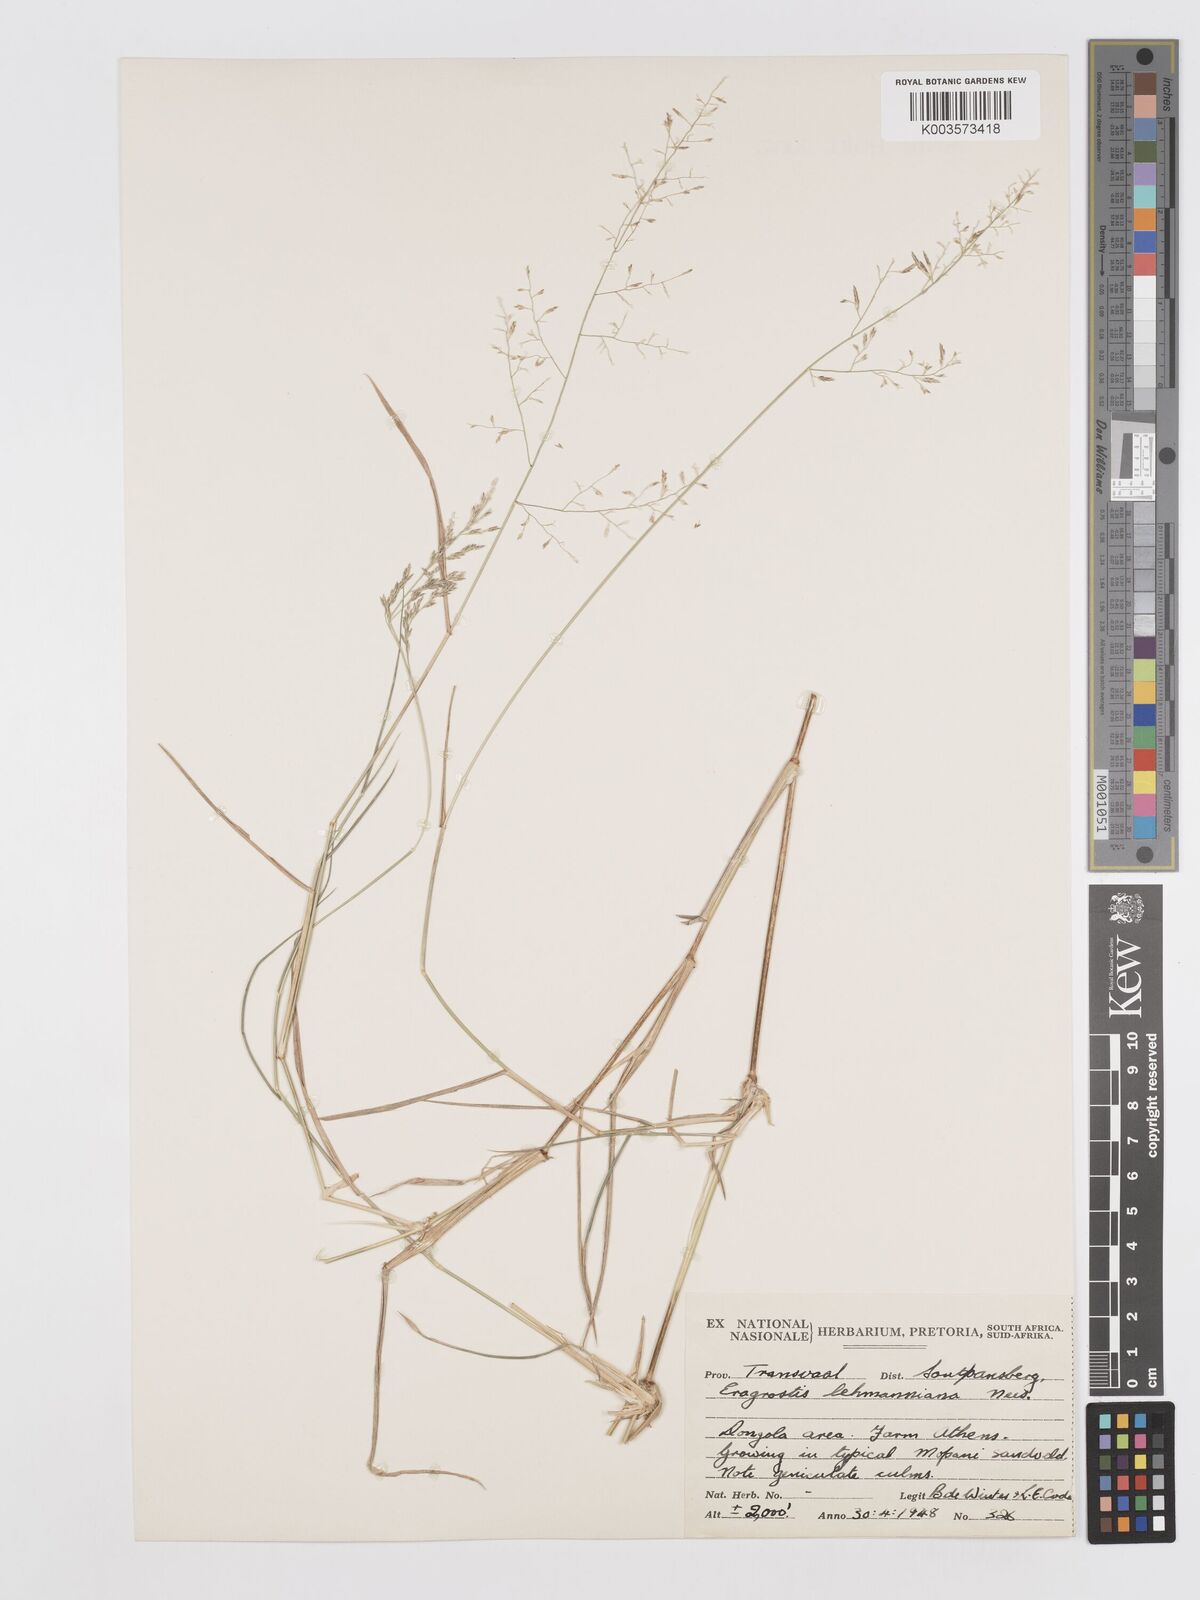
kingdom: Plantae
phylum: Tracheophyta
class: Liliopsida
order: Poales
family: Poaceae
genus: Eragrostis
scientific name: Eragrostis lehmanniana
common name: Lehmann lovegrass
